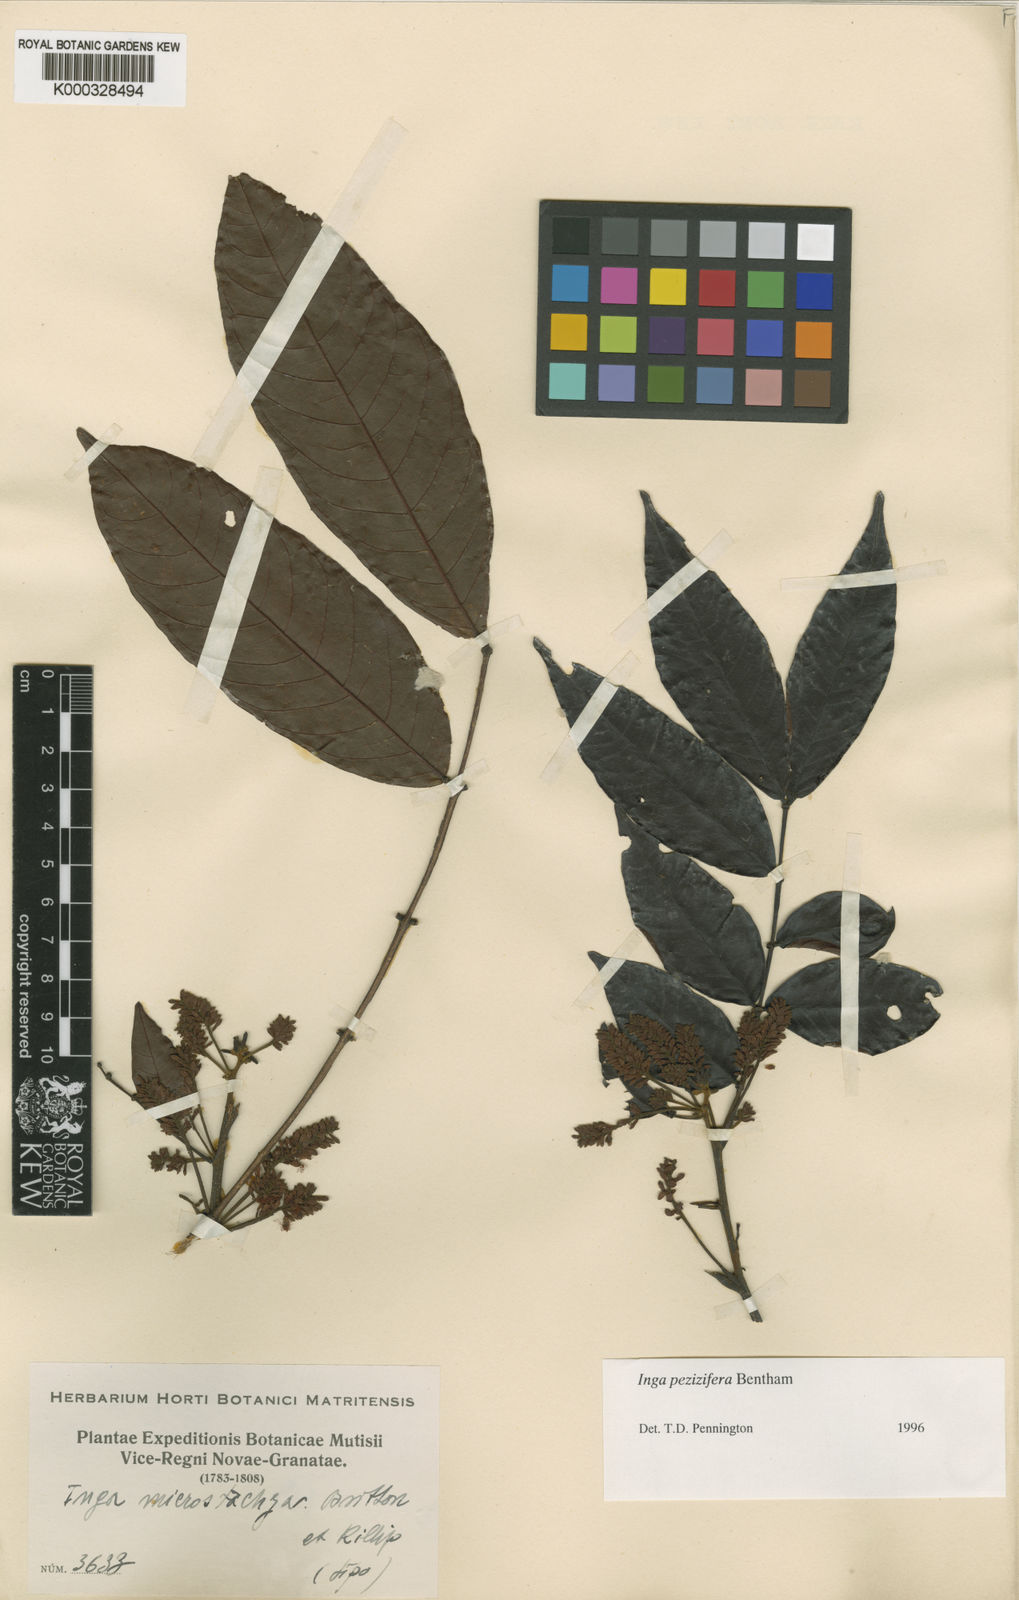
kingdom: Plantae
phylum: Tracheophyta
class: Magnoliopsida
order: Fabales
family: Fabaceae
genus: Inga
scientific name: Inga pezizifera
